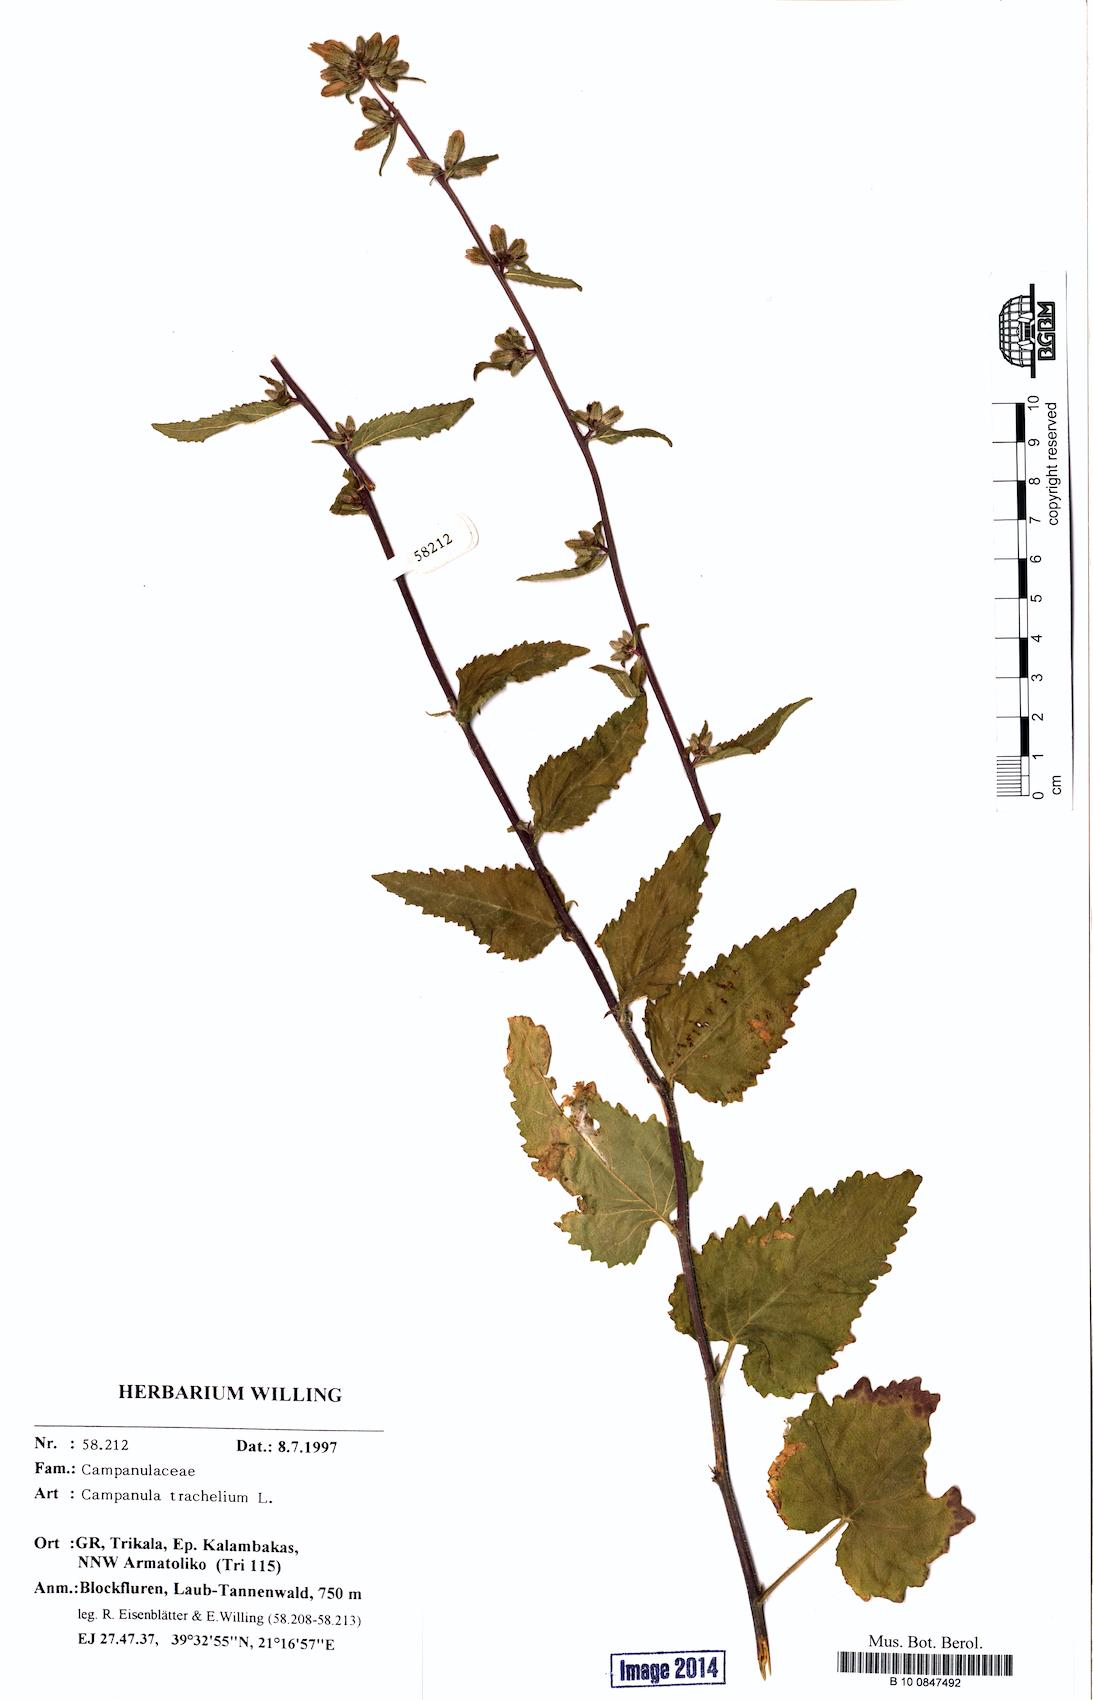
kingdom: Plantae
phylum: Tracheophyta
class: Magnoliopsida
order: Asterales
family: Campanulaceae
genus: Campanula
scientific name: Campanula trachelium
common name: Nettle-leaved bellflower
